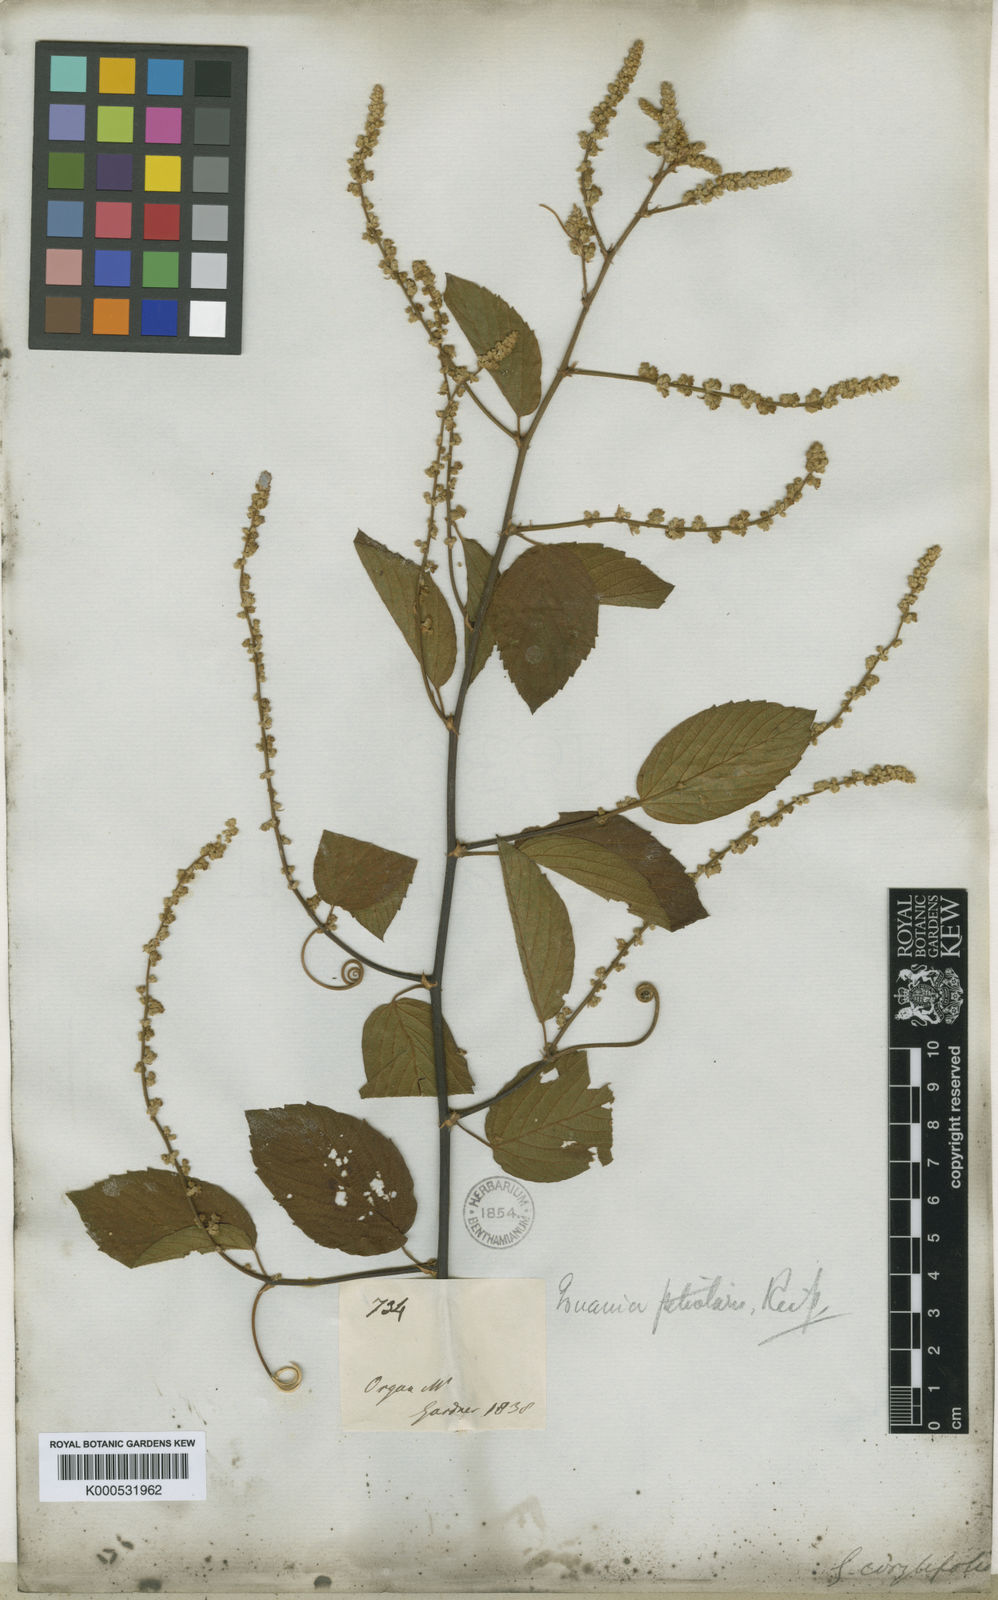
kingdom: Plantae
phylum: Tracheophyta
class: Magnoliopsida
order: Rosales
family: Rhamnaceae
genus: Gouania
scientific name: Gouania corylifolia
